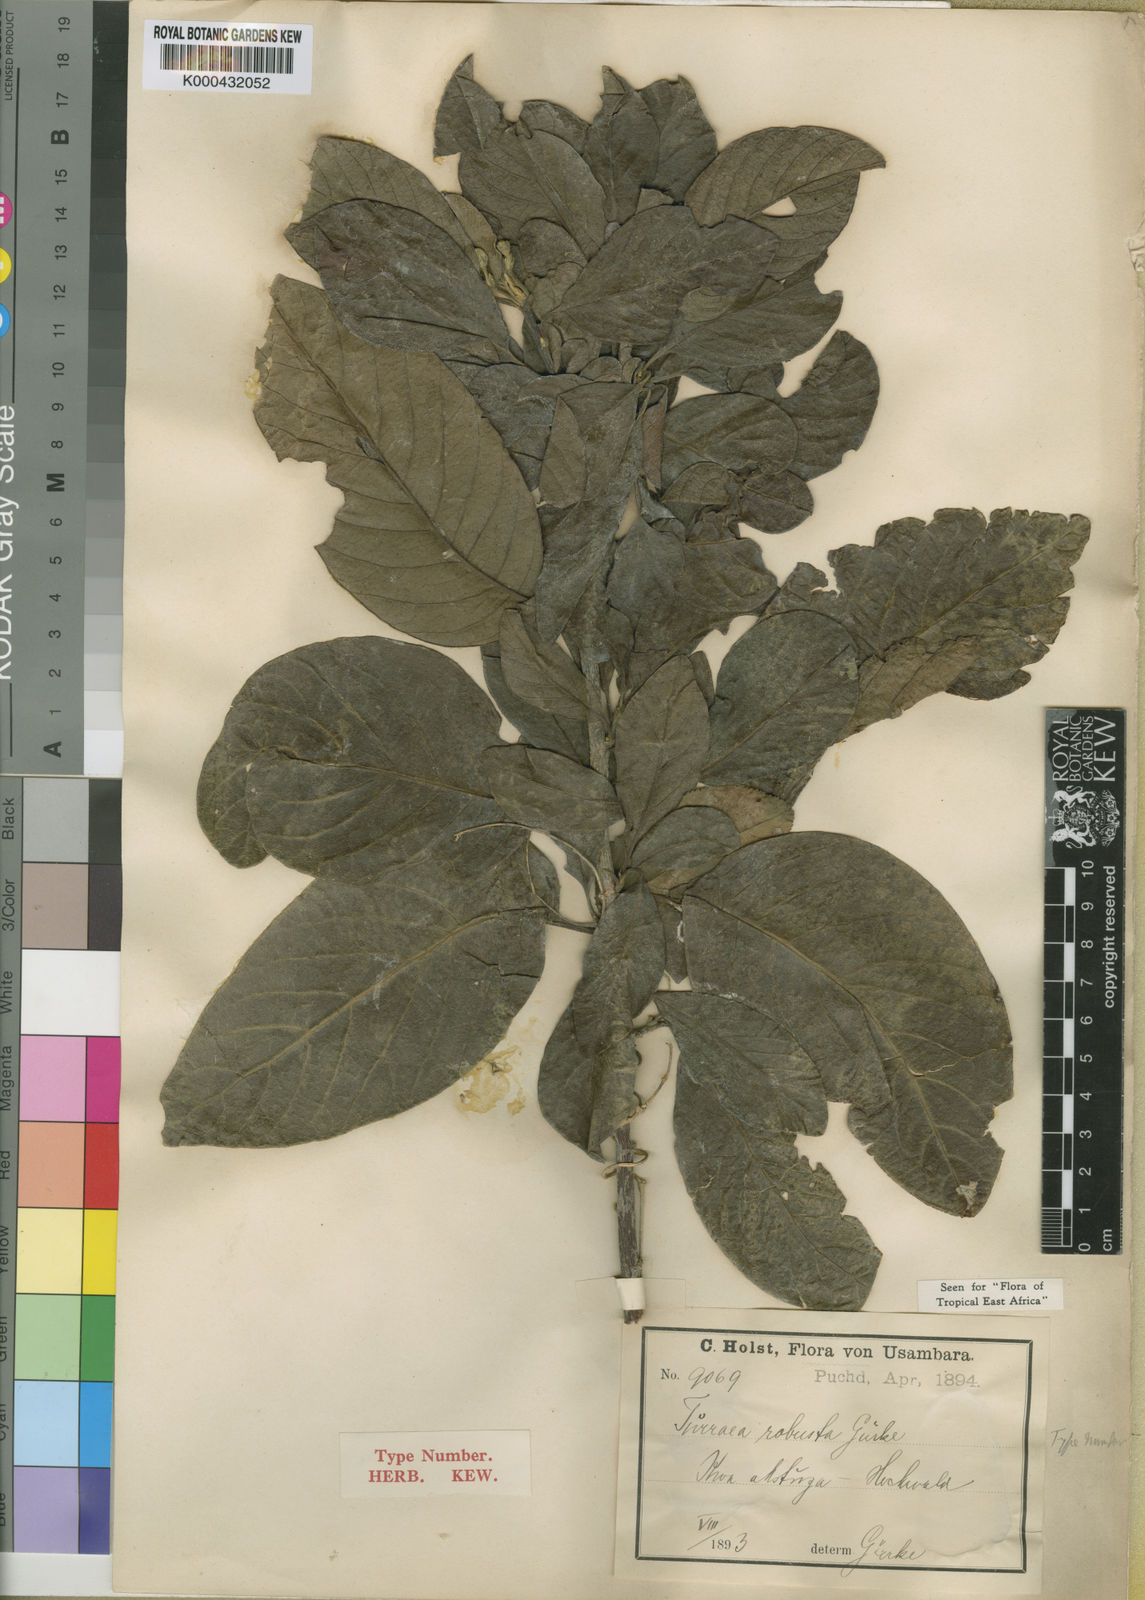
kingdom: Plantae
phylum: Tracheophyta
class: Magnoliopsida
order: Sapindales
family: Meliaceae
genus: Turraea
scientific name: Turraea
